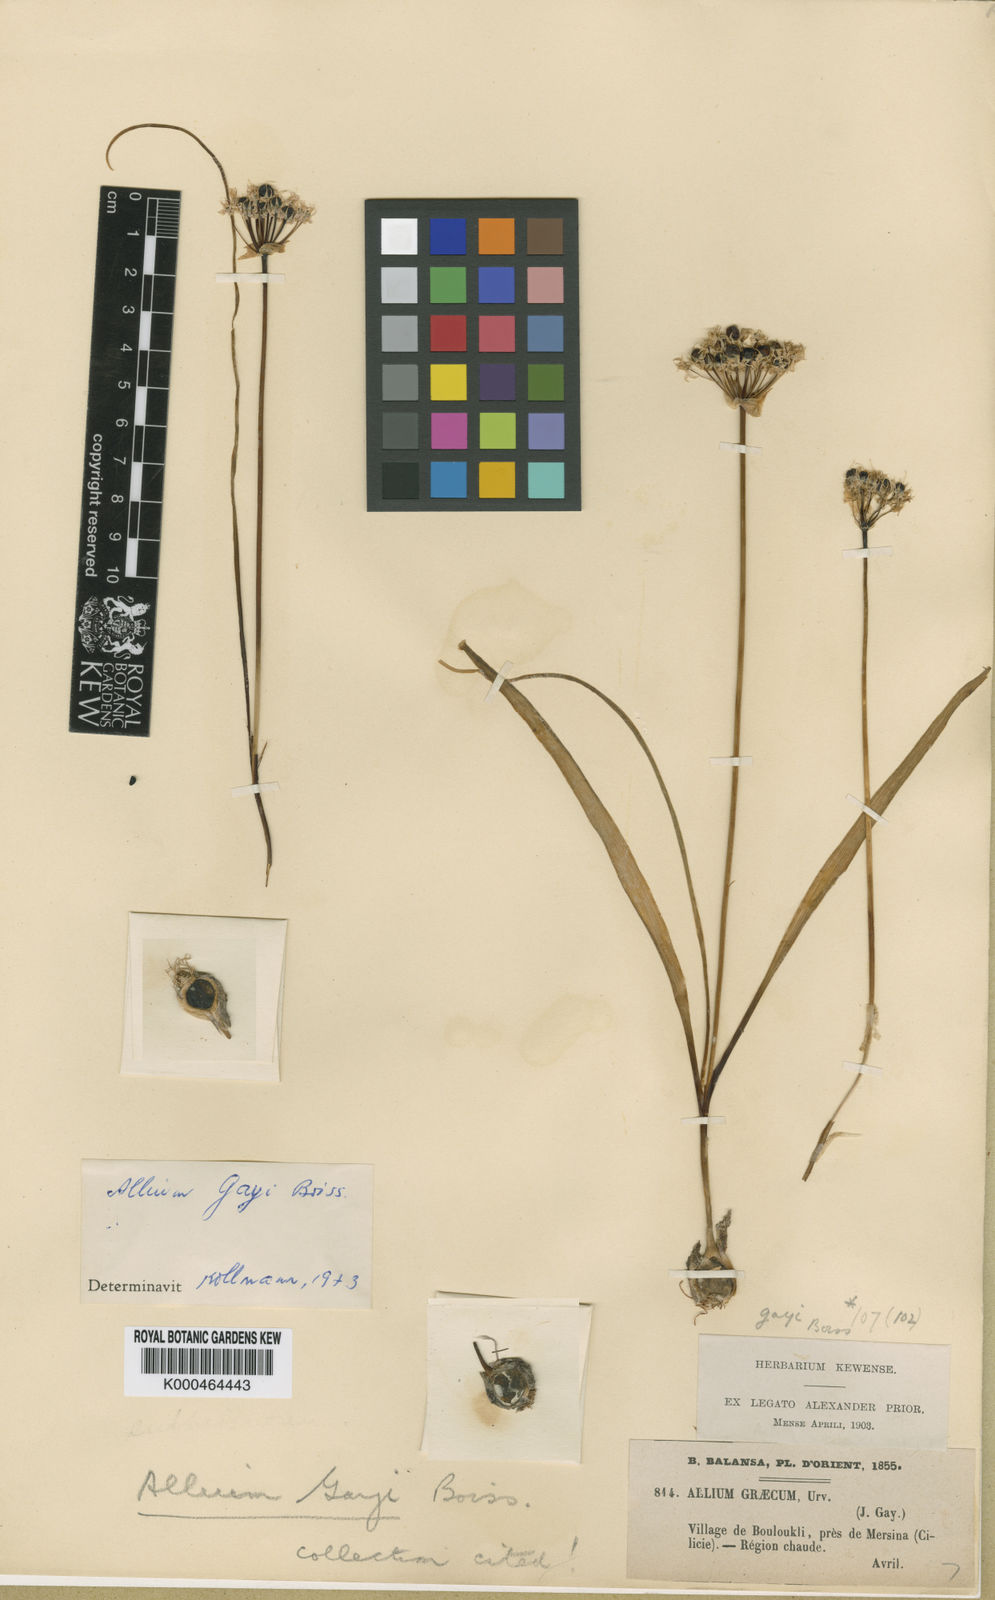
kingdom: Plantae
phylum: Tracheophyta
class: Liliopsida
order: Asparagales
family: Amaryllidaceae
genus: Allium
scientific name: Allium orientale
